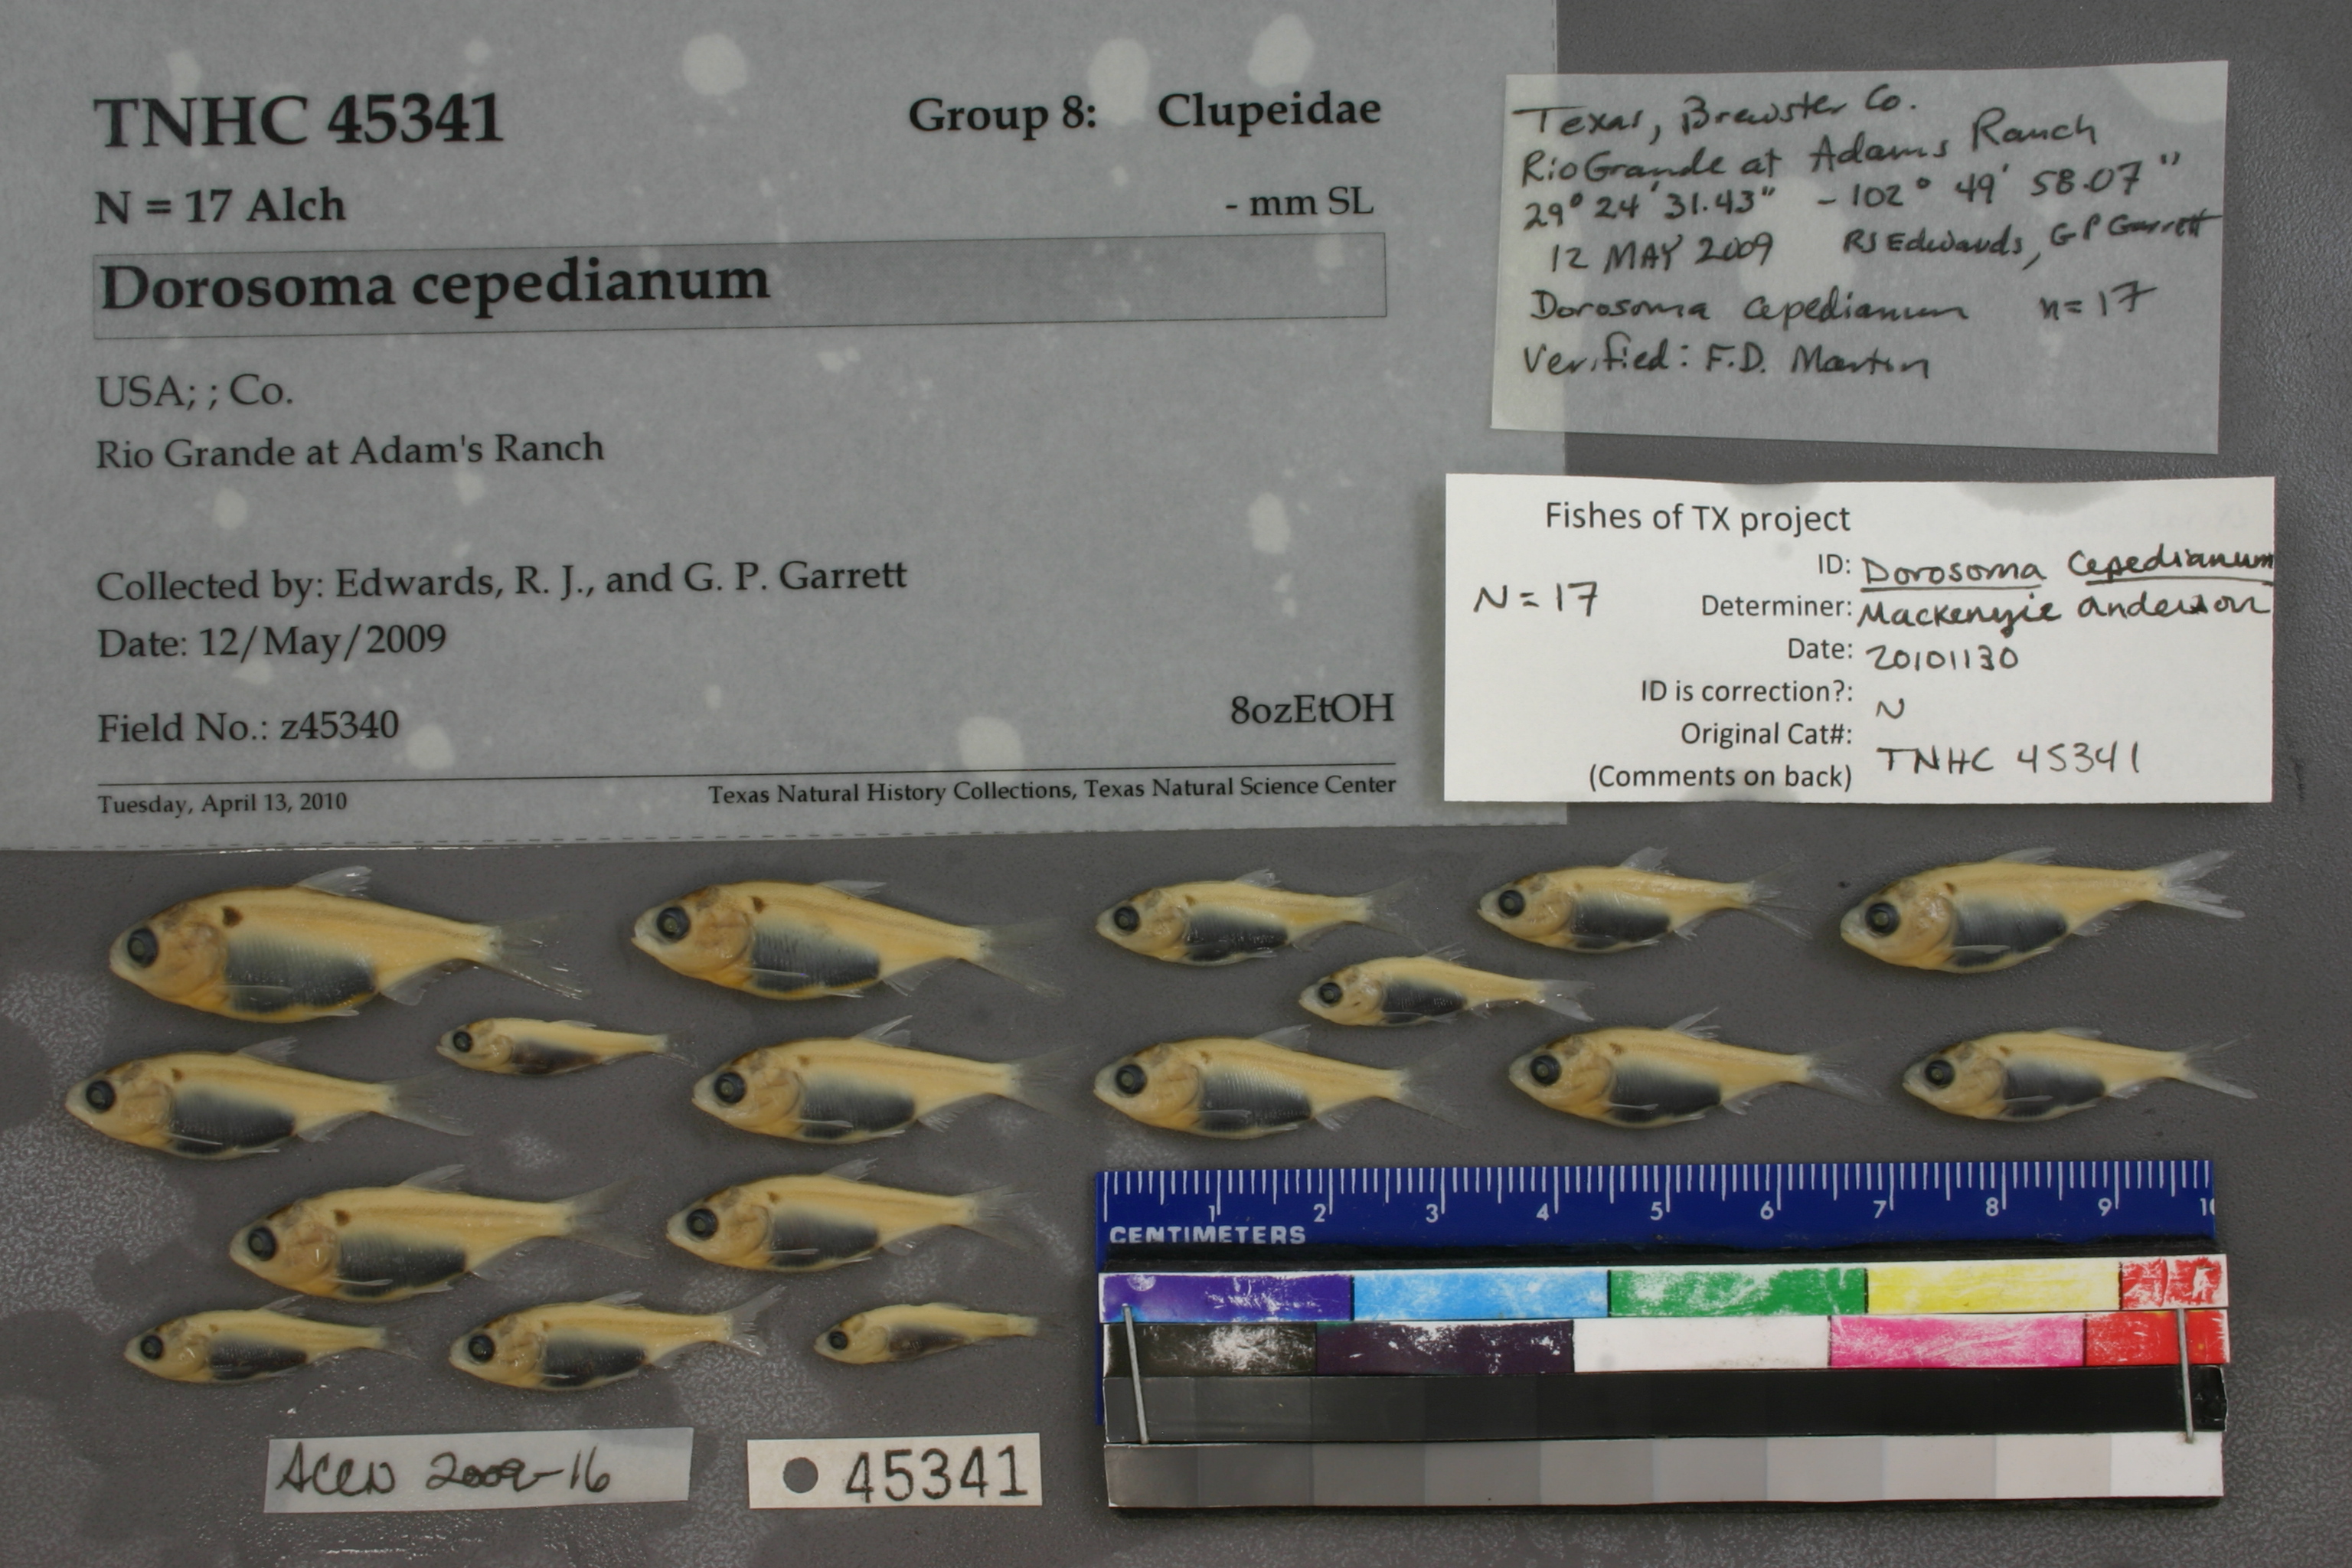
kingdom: Animalia
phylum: Chordata
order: Clupeiformes
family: Clupeidae
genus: Dorosoma
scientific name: Dorosoma cepedianum
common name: Gizzard shad
